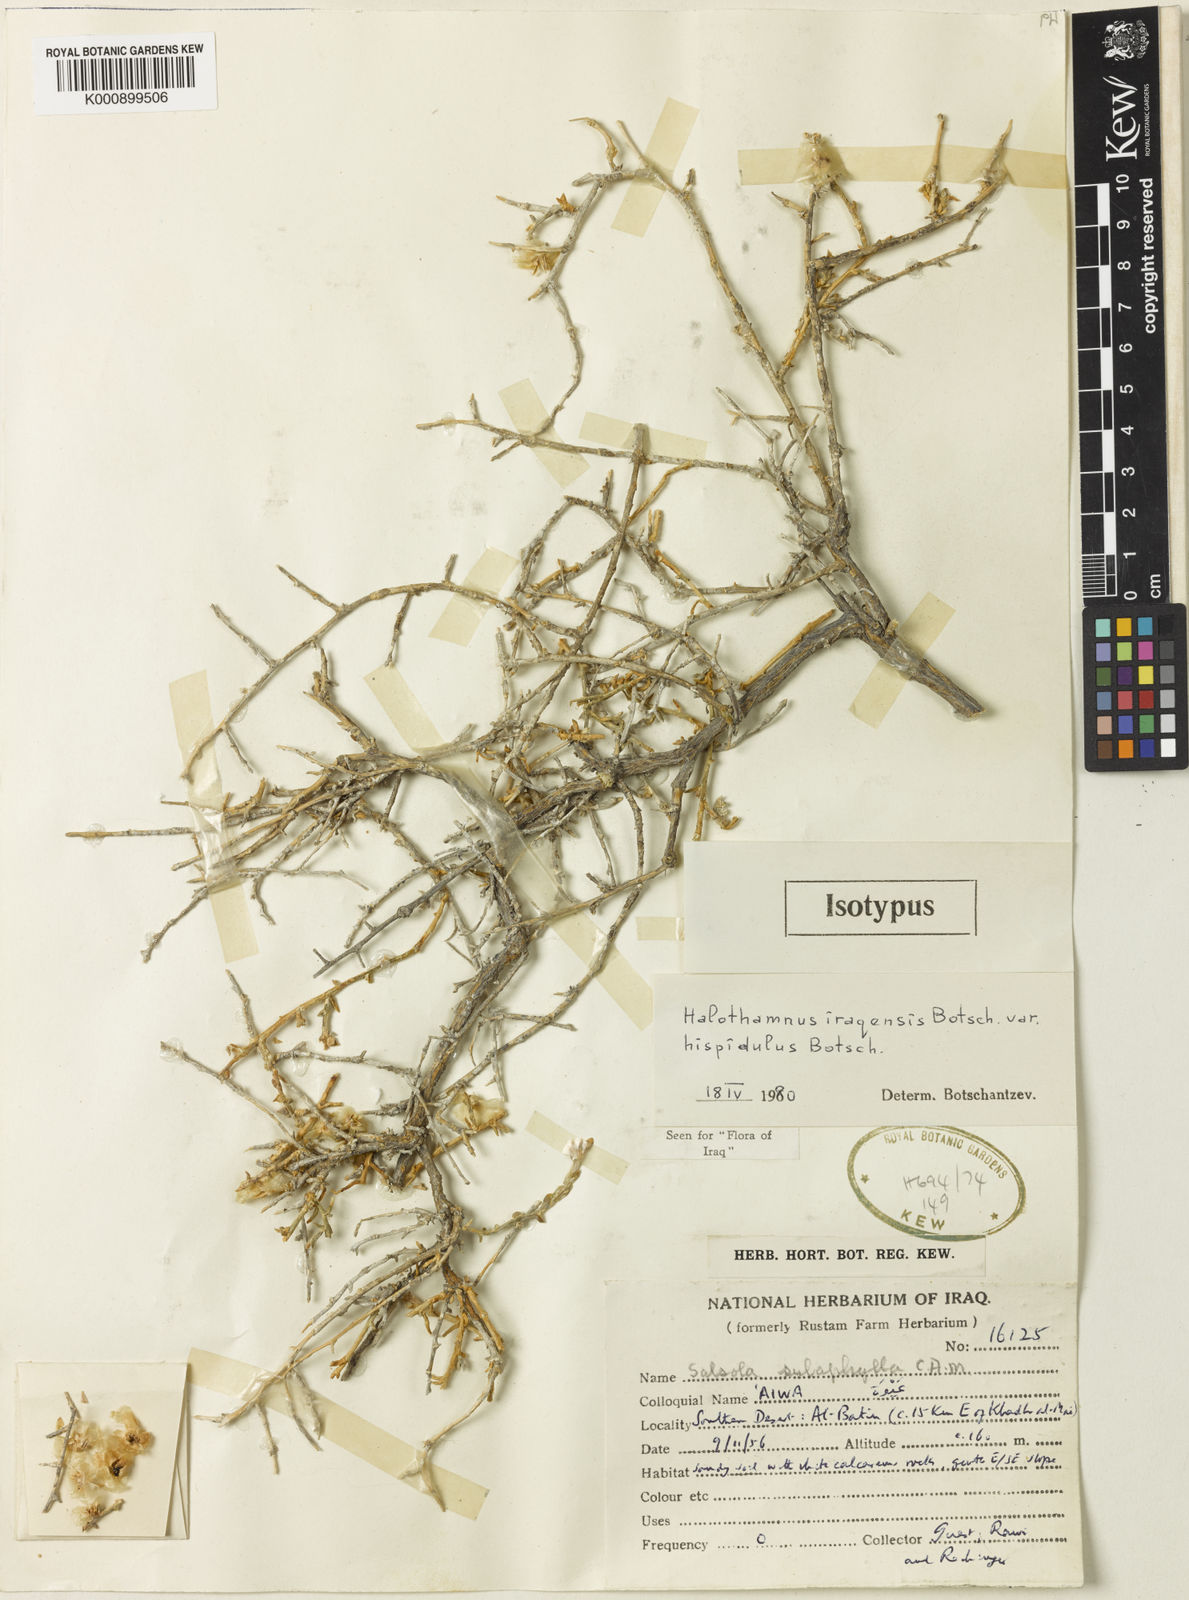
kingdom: Plantae
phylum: Tracheophyta
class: Magnoliopsida
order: Caryophyllales
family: Amaranthaceae
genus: Halothamnus
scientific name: Halothamnus iraqensis
